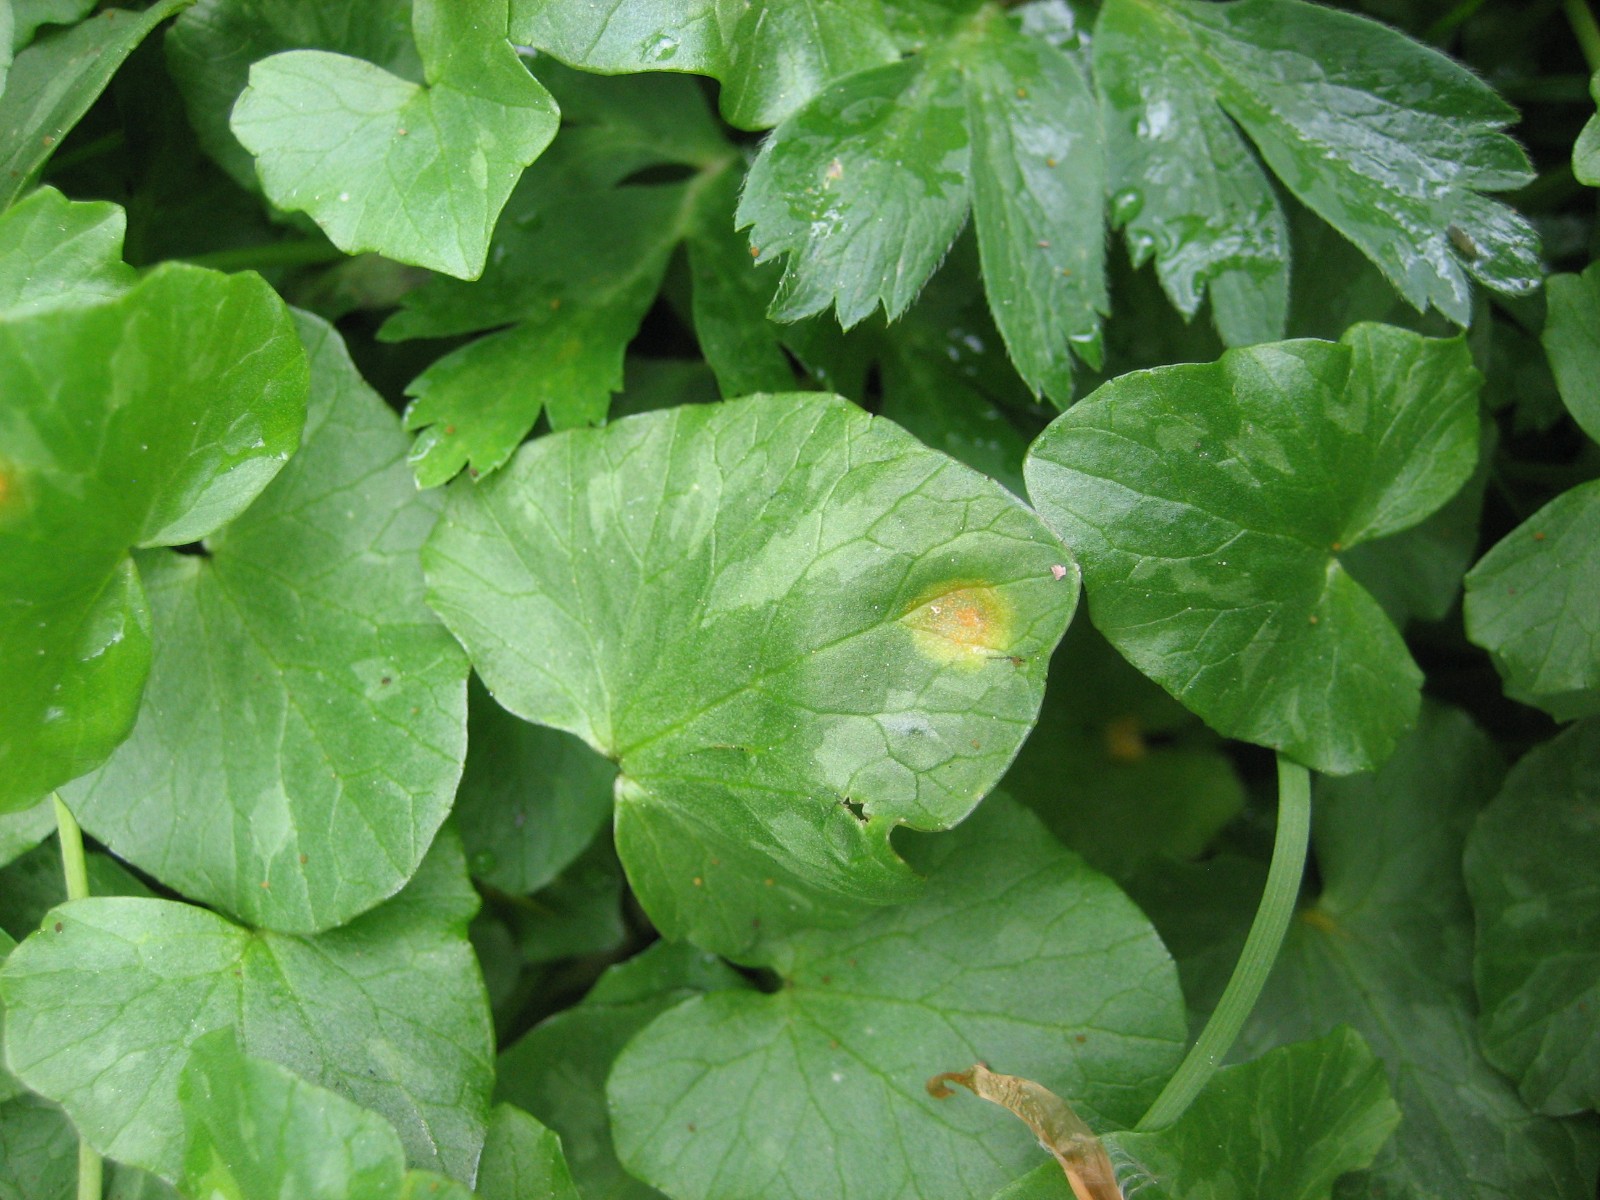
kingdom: Fungi
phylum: Basidiomycota
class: Pucciniomycetes
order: Pucciniales
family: Pucciniaceae
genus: Uromyces
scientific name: Uromyces dactylidis
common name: ranunkel-encellerust
